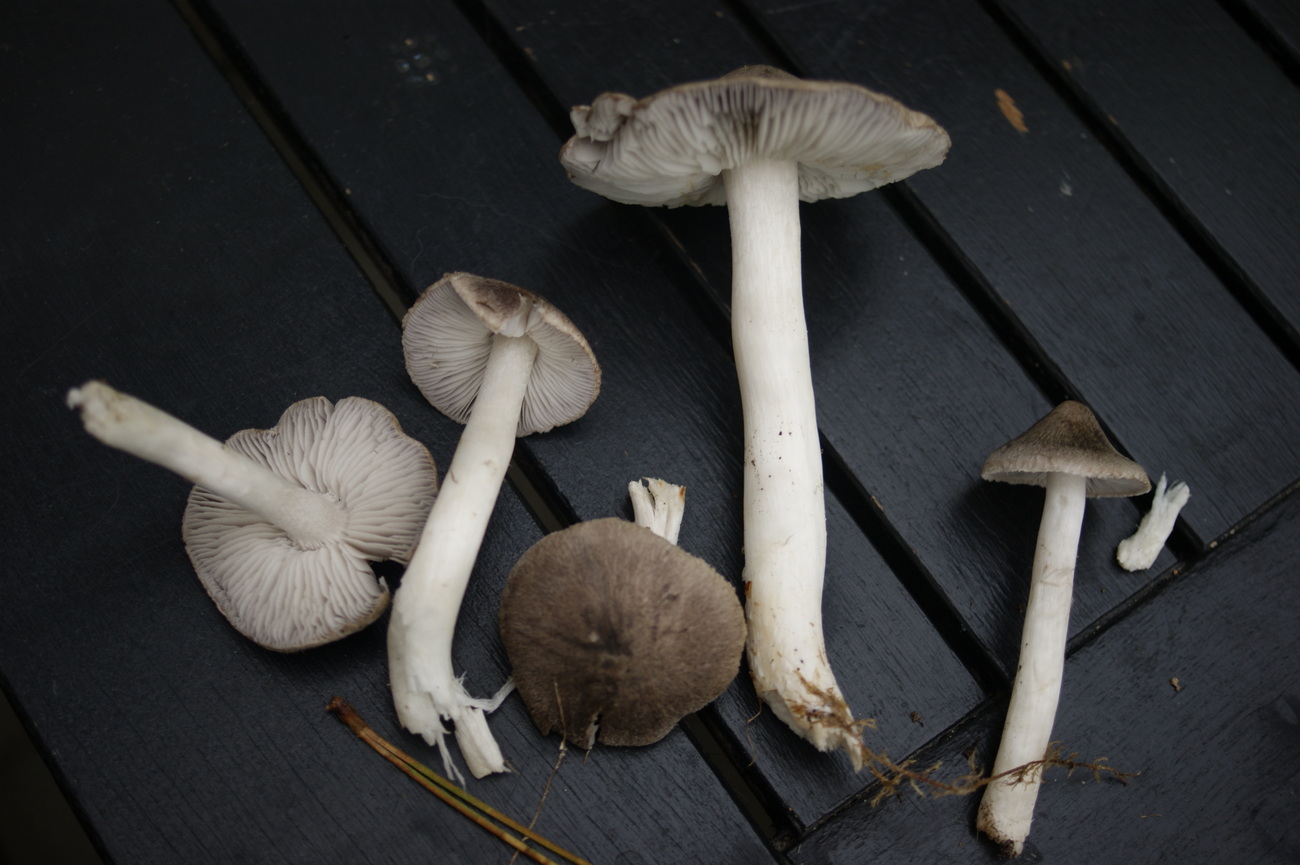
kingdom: Fungi
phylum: Basidiomycota
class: Agaricomycetes
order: Agaricales
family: Tricholomataceae
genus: Tricholoma
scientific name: Tricholoma terreum
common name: jordfarvet ridderhat
